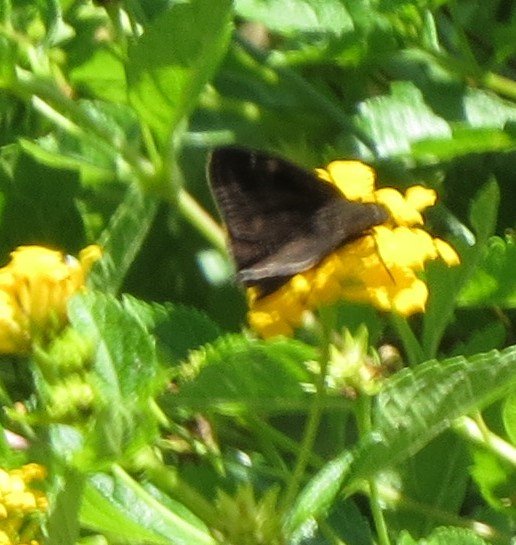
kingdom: Animalia
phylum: Arthropoda
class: Insecta
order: Lepidoptera
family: Hesperiidae
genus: Gesta
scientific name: Gesta
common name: Horace's Duskywing
